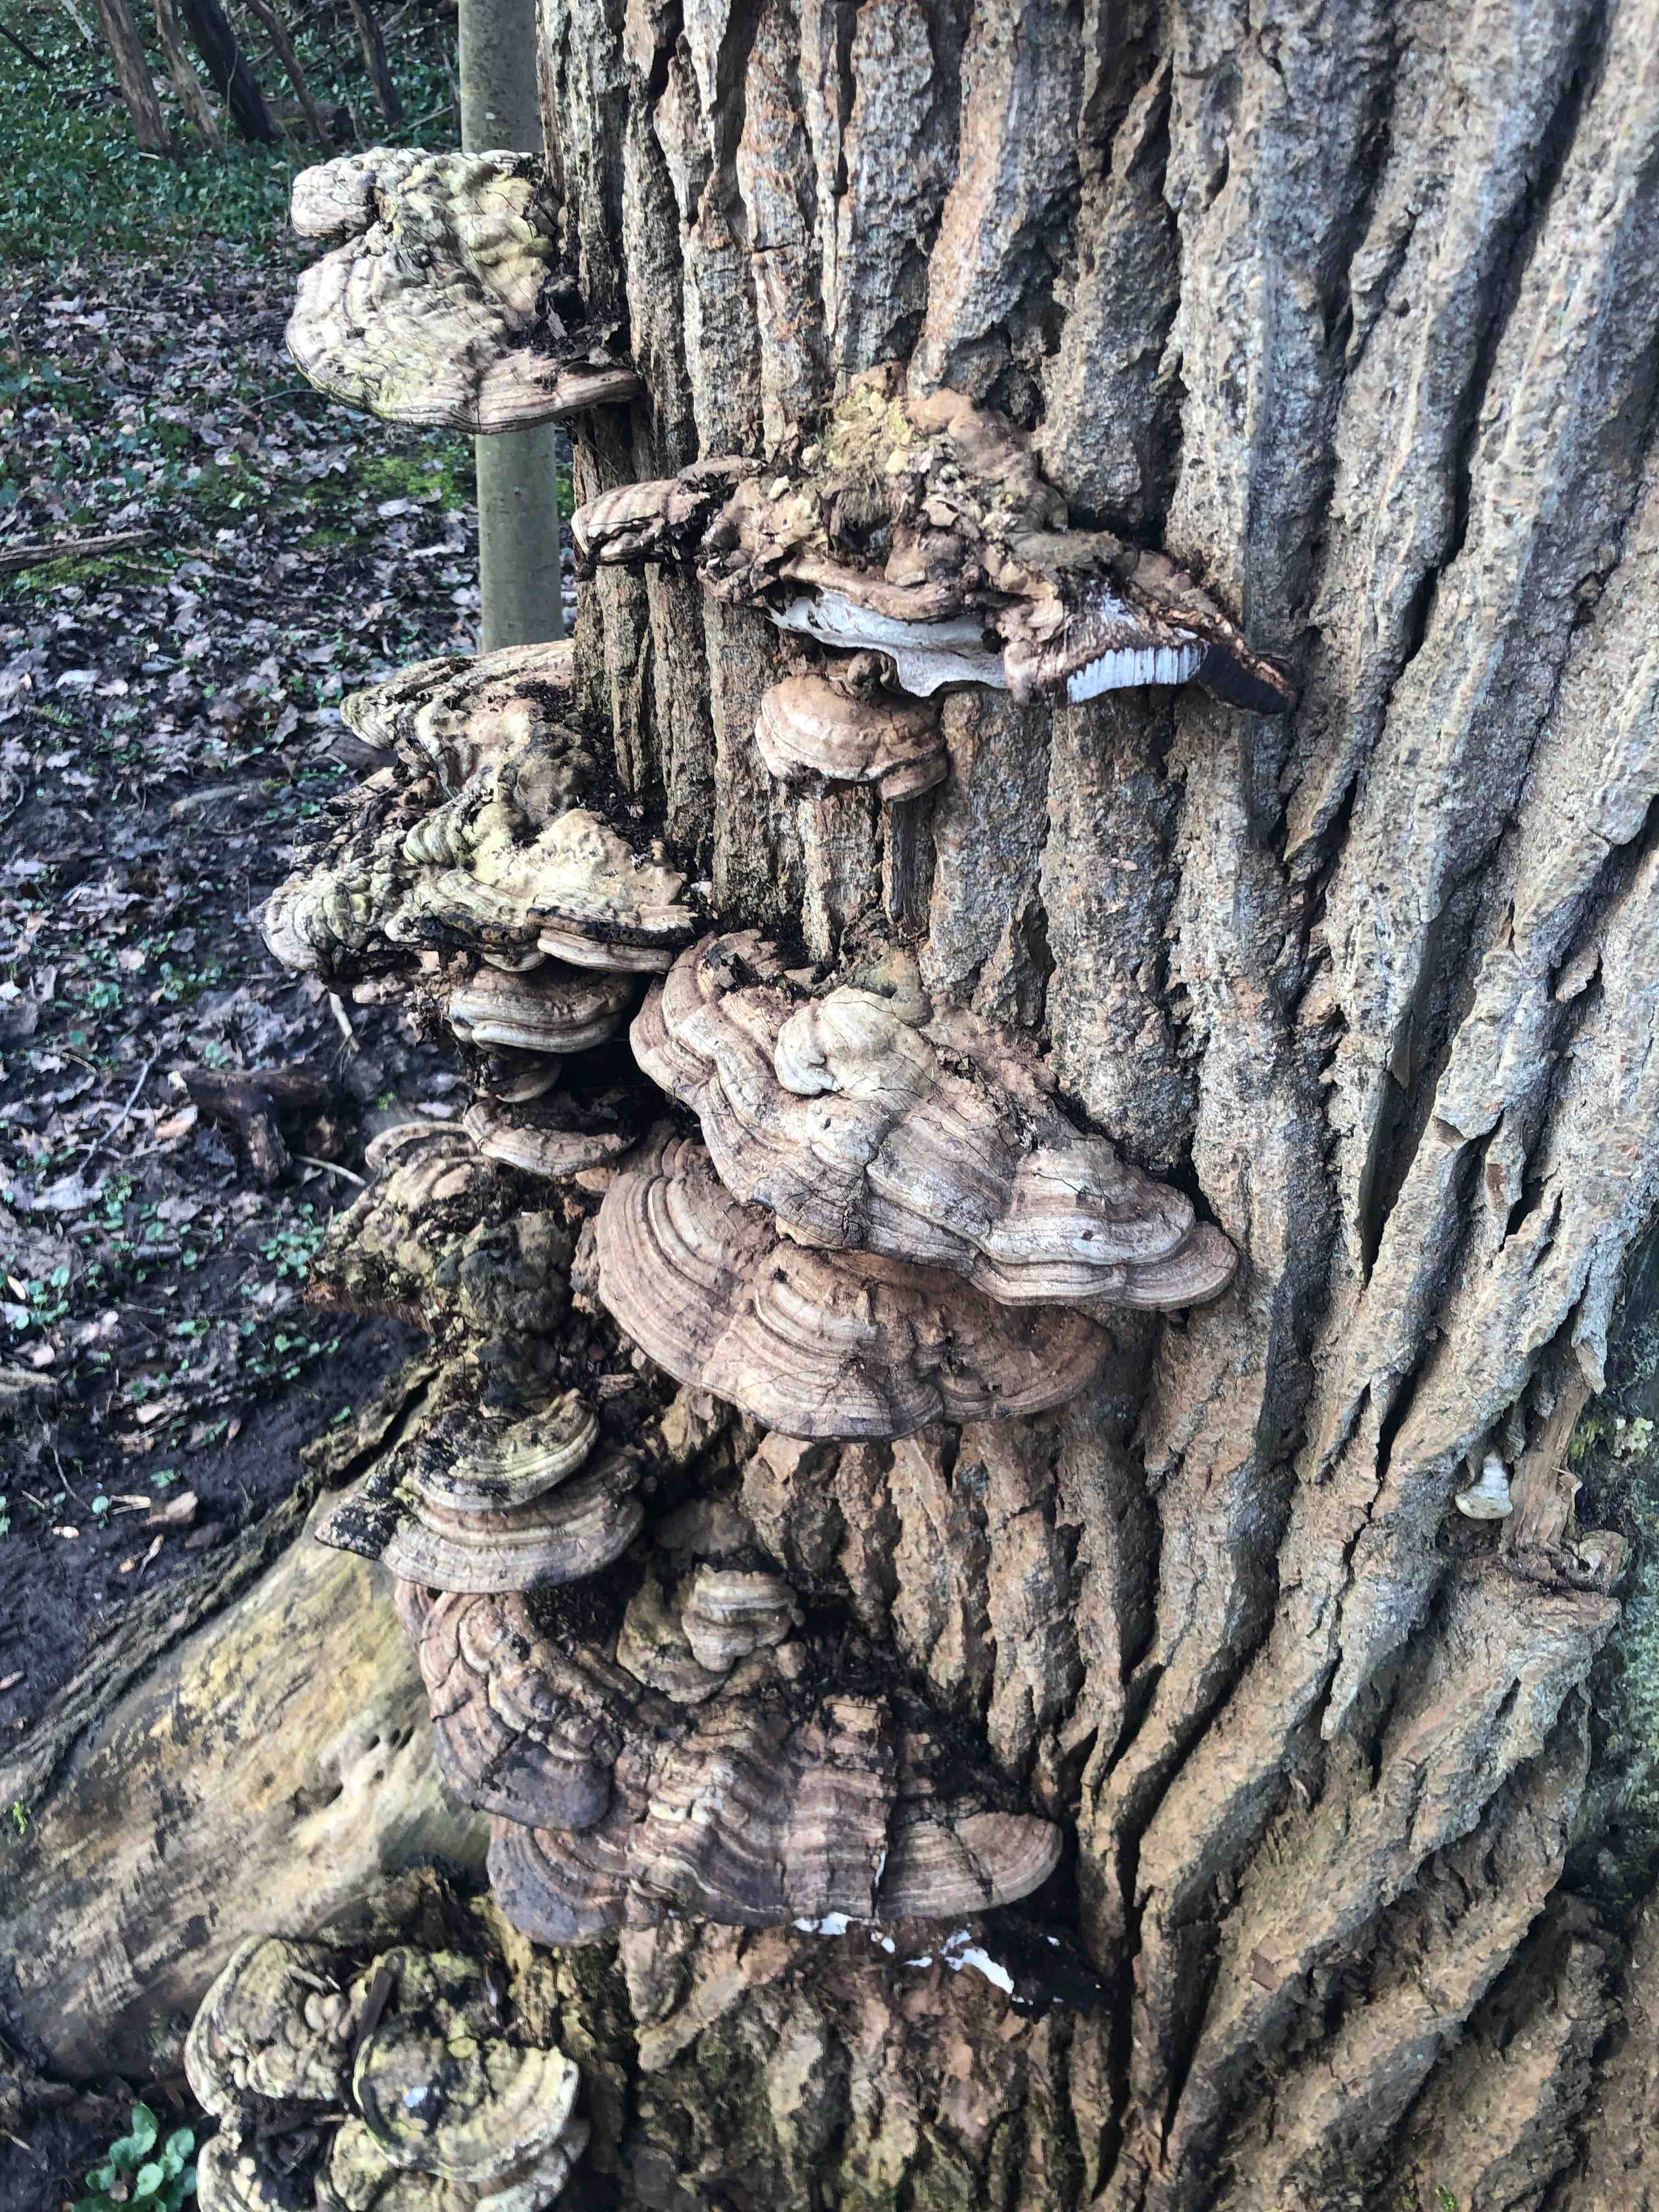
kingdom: Fungi
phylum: Basidiomycota
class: Agaricomycetes
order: Polyporales
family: Polyporaceae
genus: Ganoderma
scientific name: Ganoderma applanatum
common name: flad lakporesvamp
